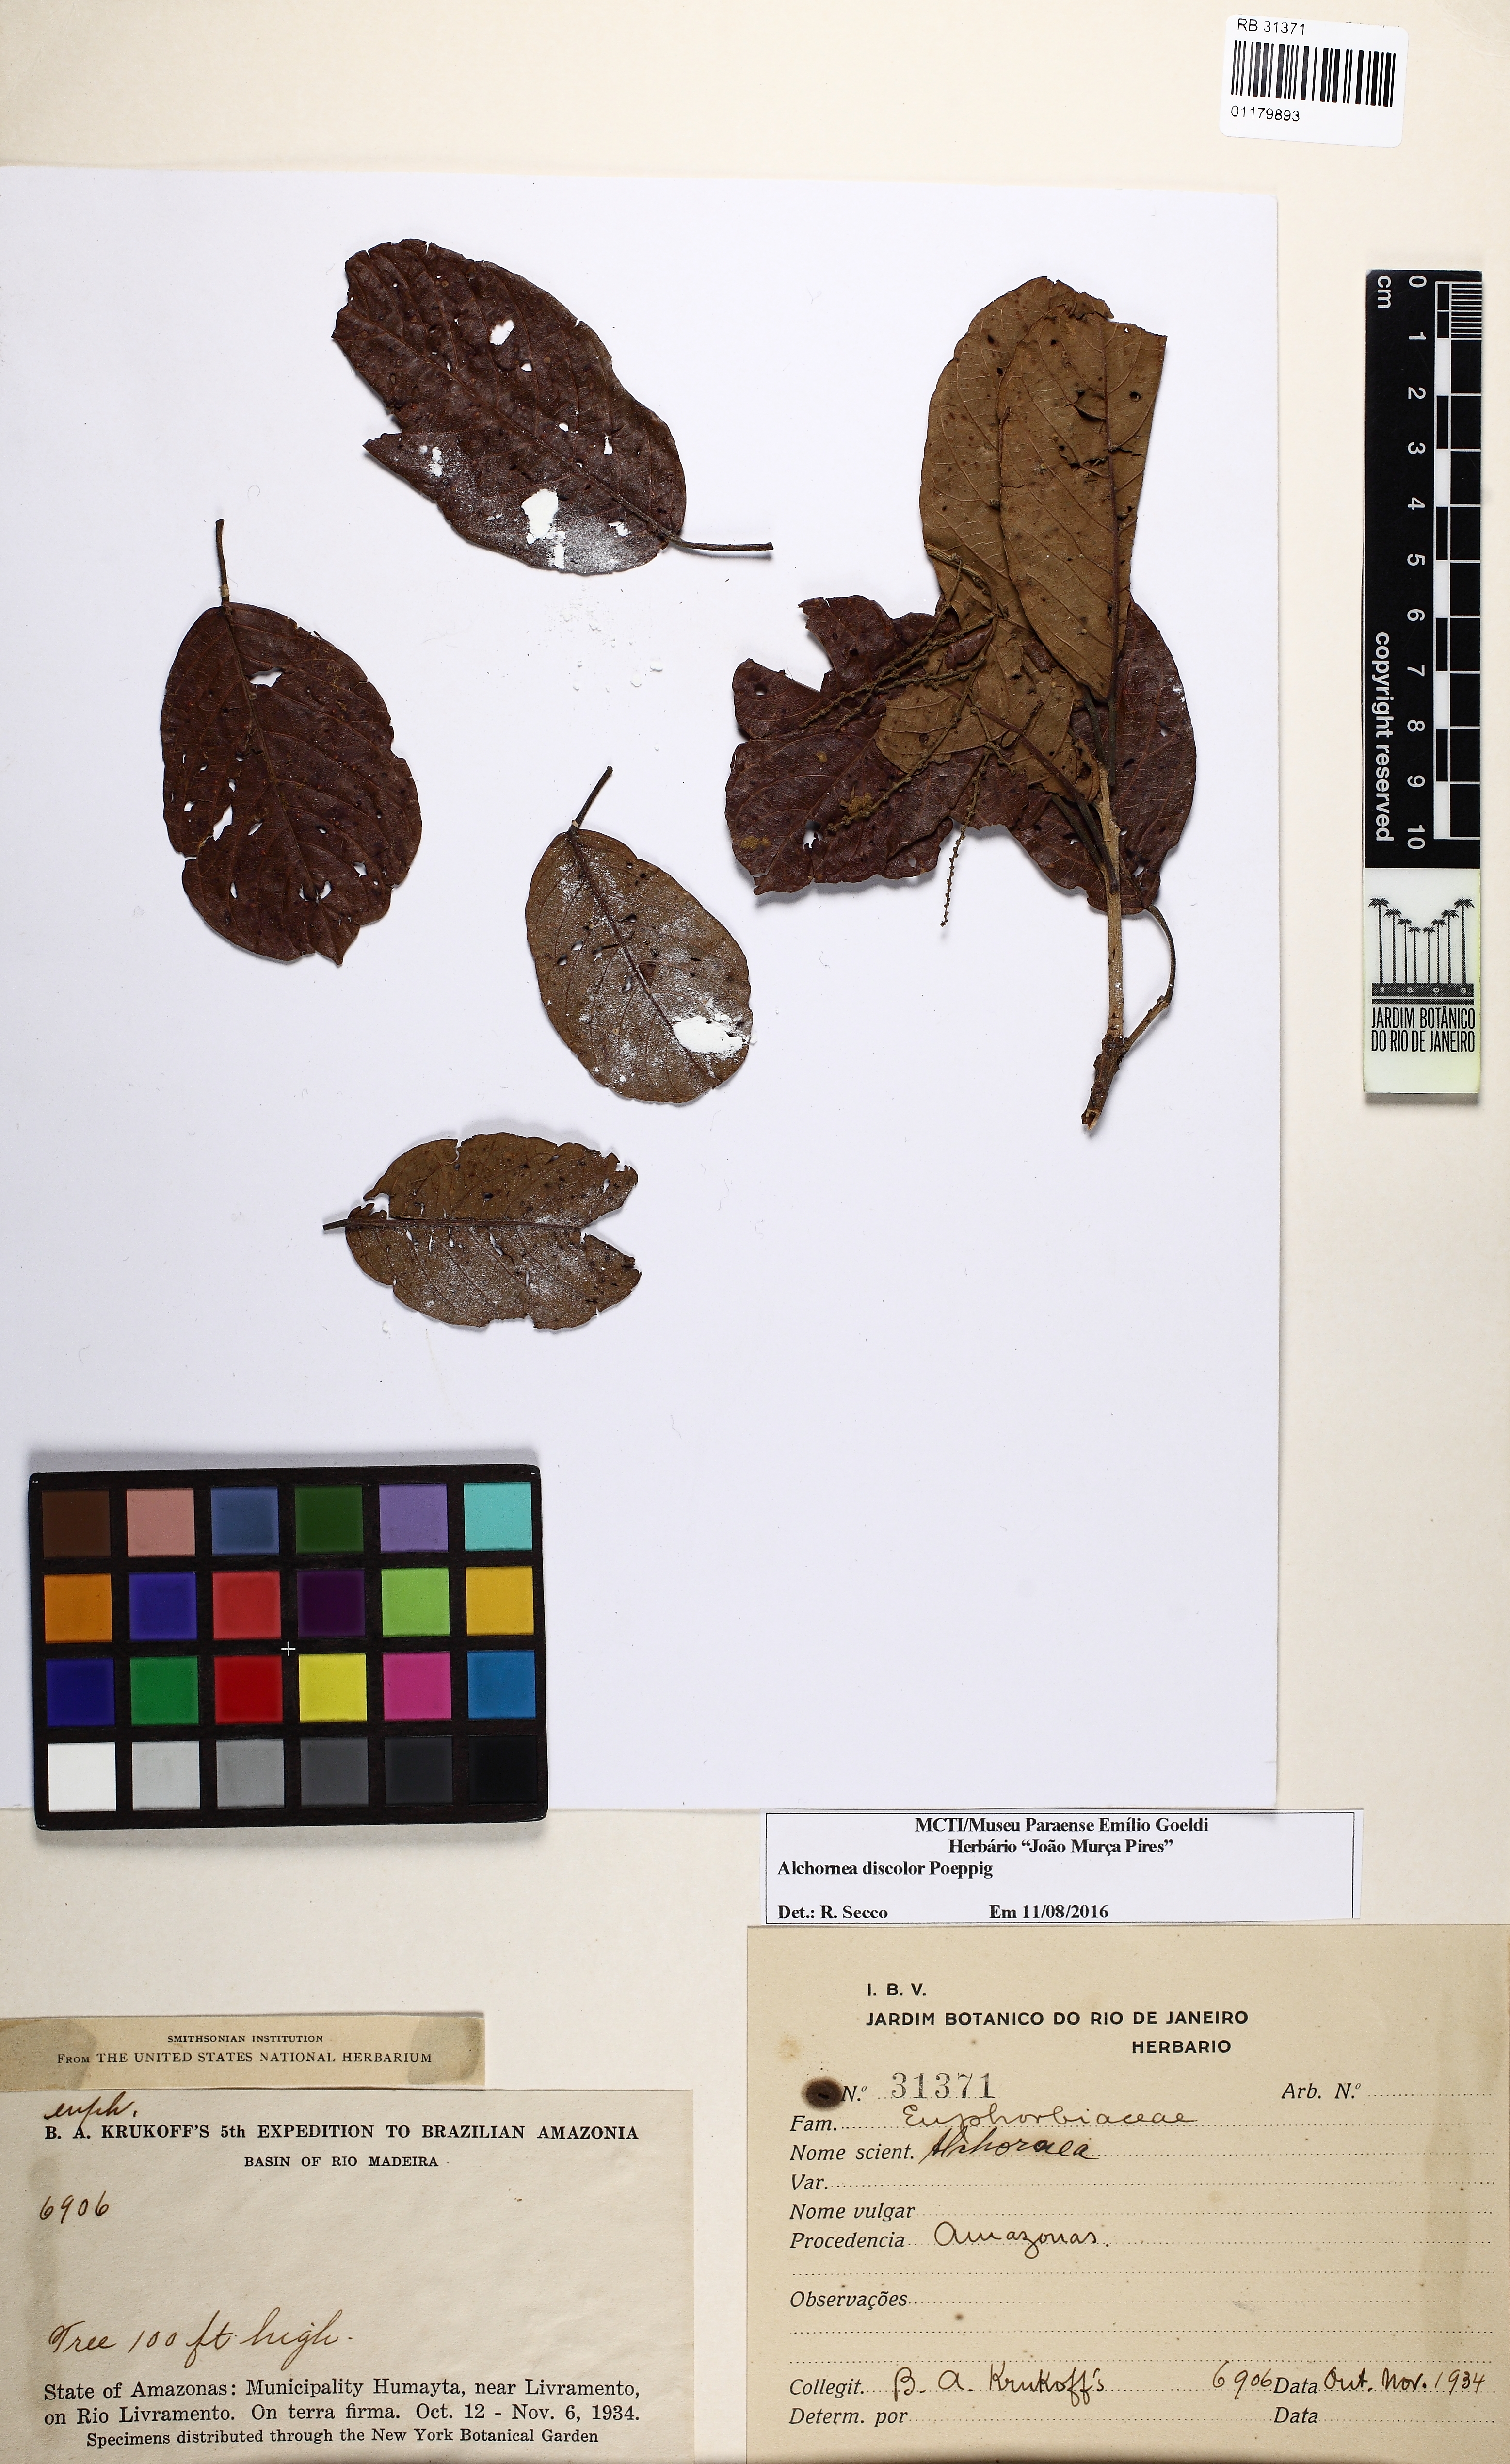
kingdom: Plantae
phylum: Tracheophyta
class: Magnoliopsida
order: Malpighiales
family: Euphorbiaceae
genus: Alchornea
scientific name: Alchornea discolor
